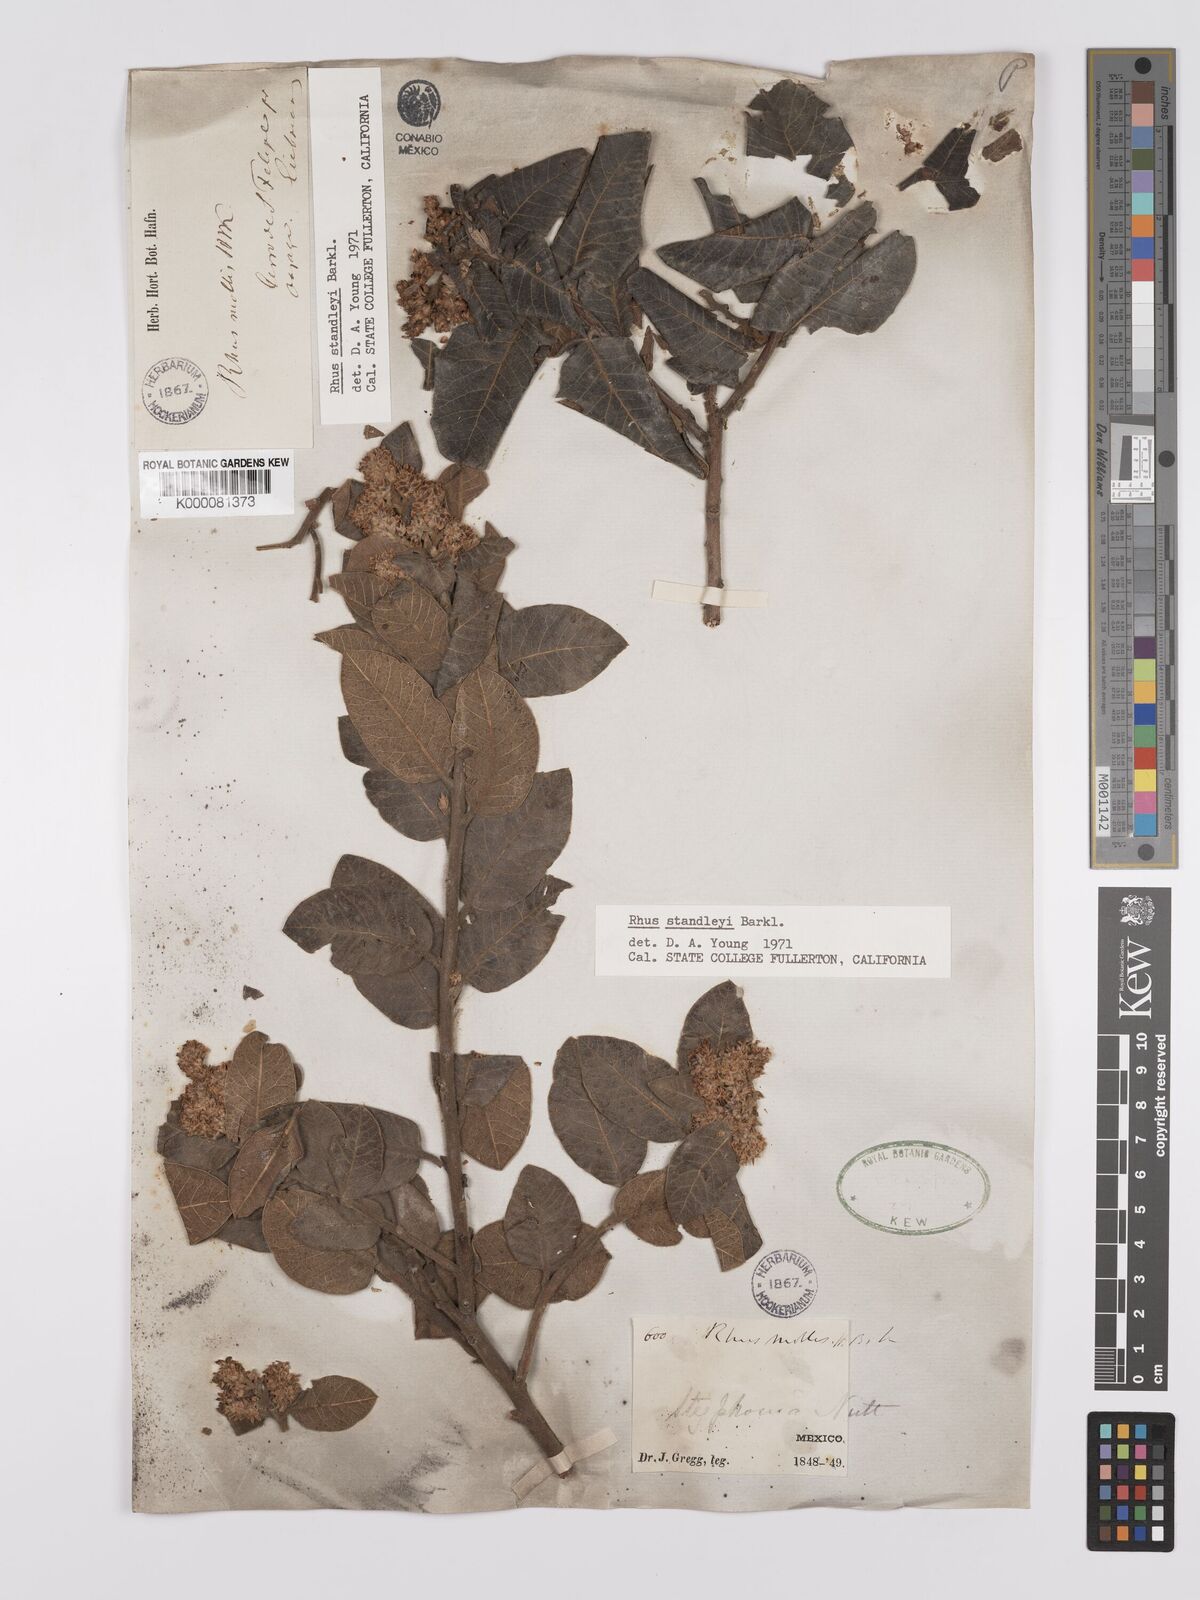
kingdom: Plantae
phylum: Tracheophyta
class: Magnoliopsida
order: Sapindales
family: Anacardiaceae
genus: Rhus
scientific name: Rhus standleyi
